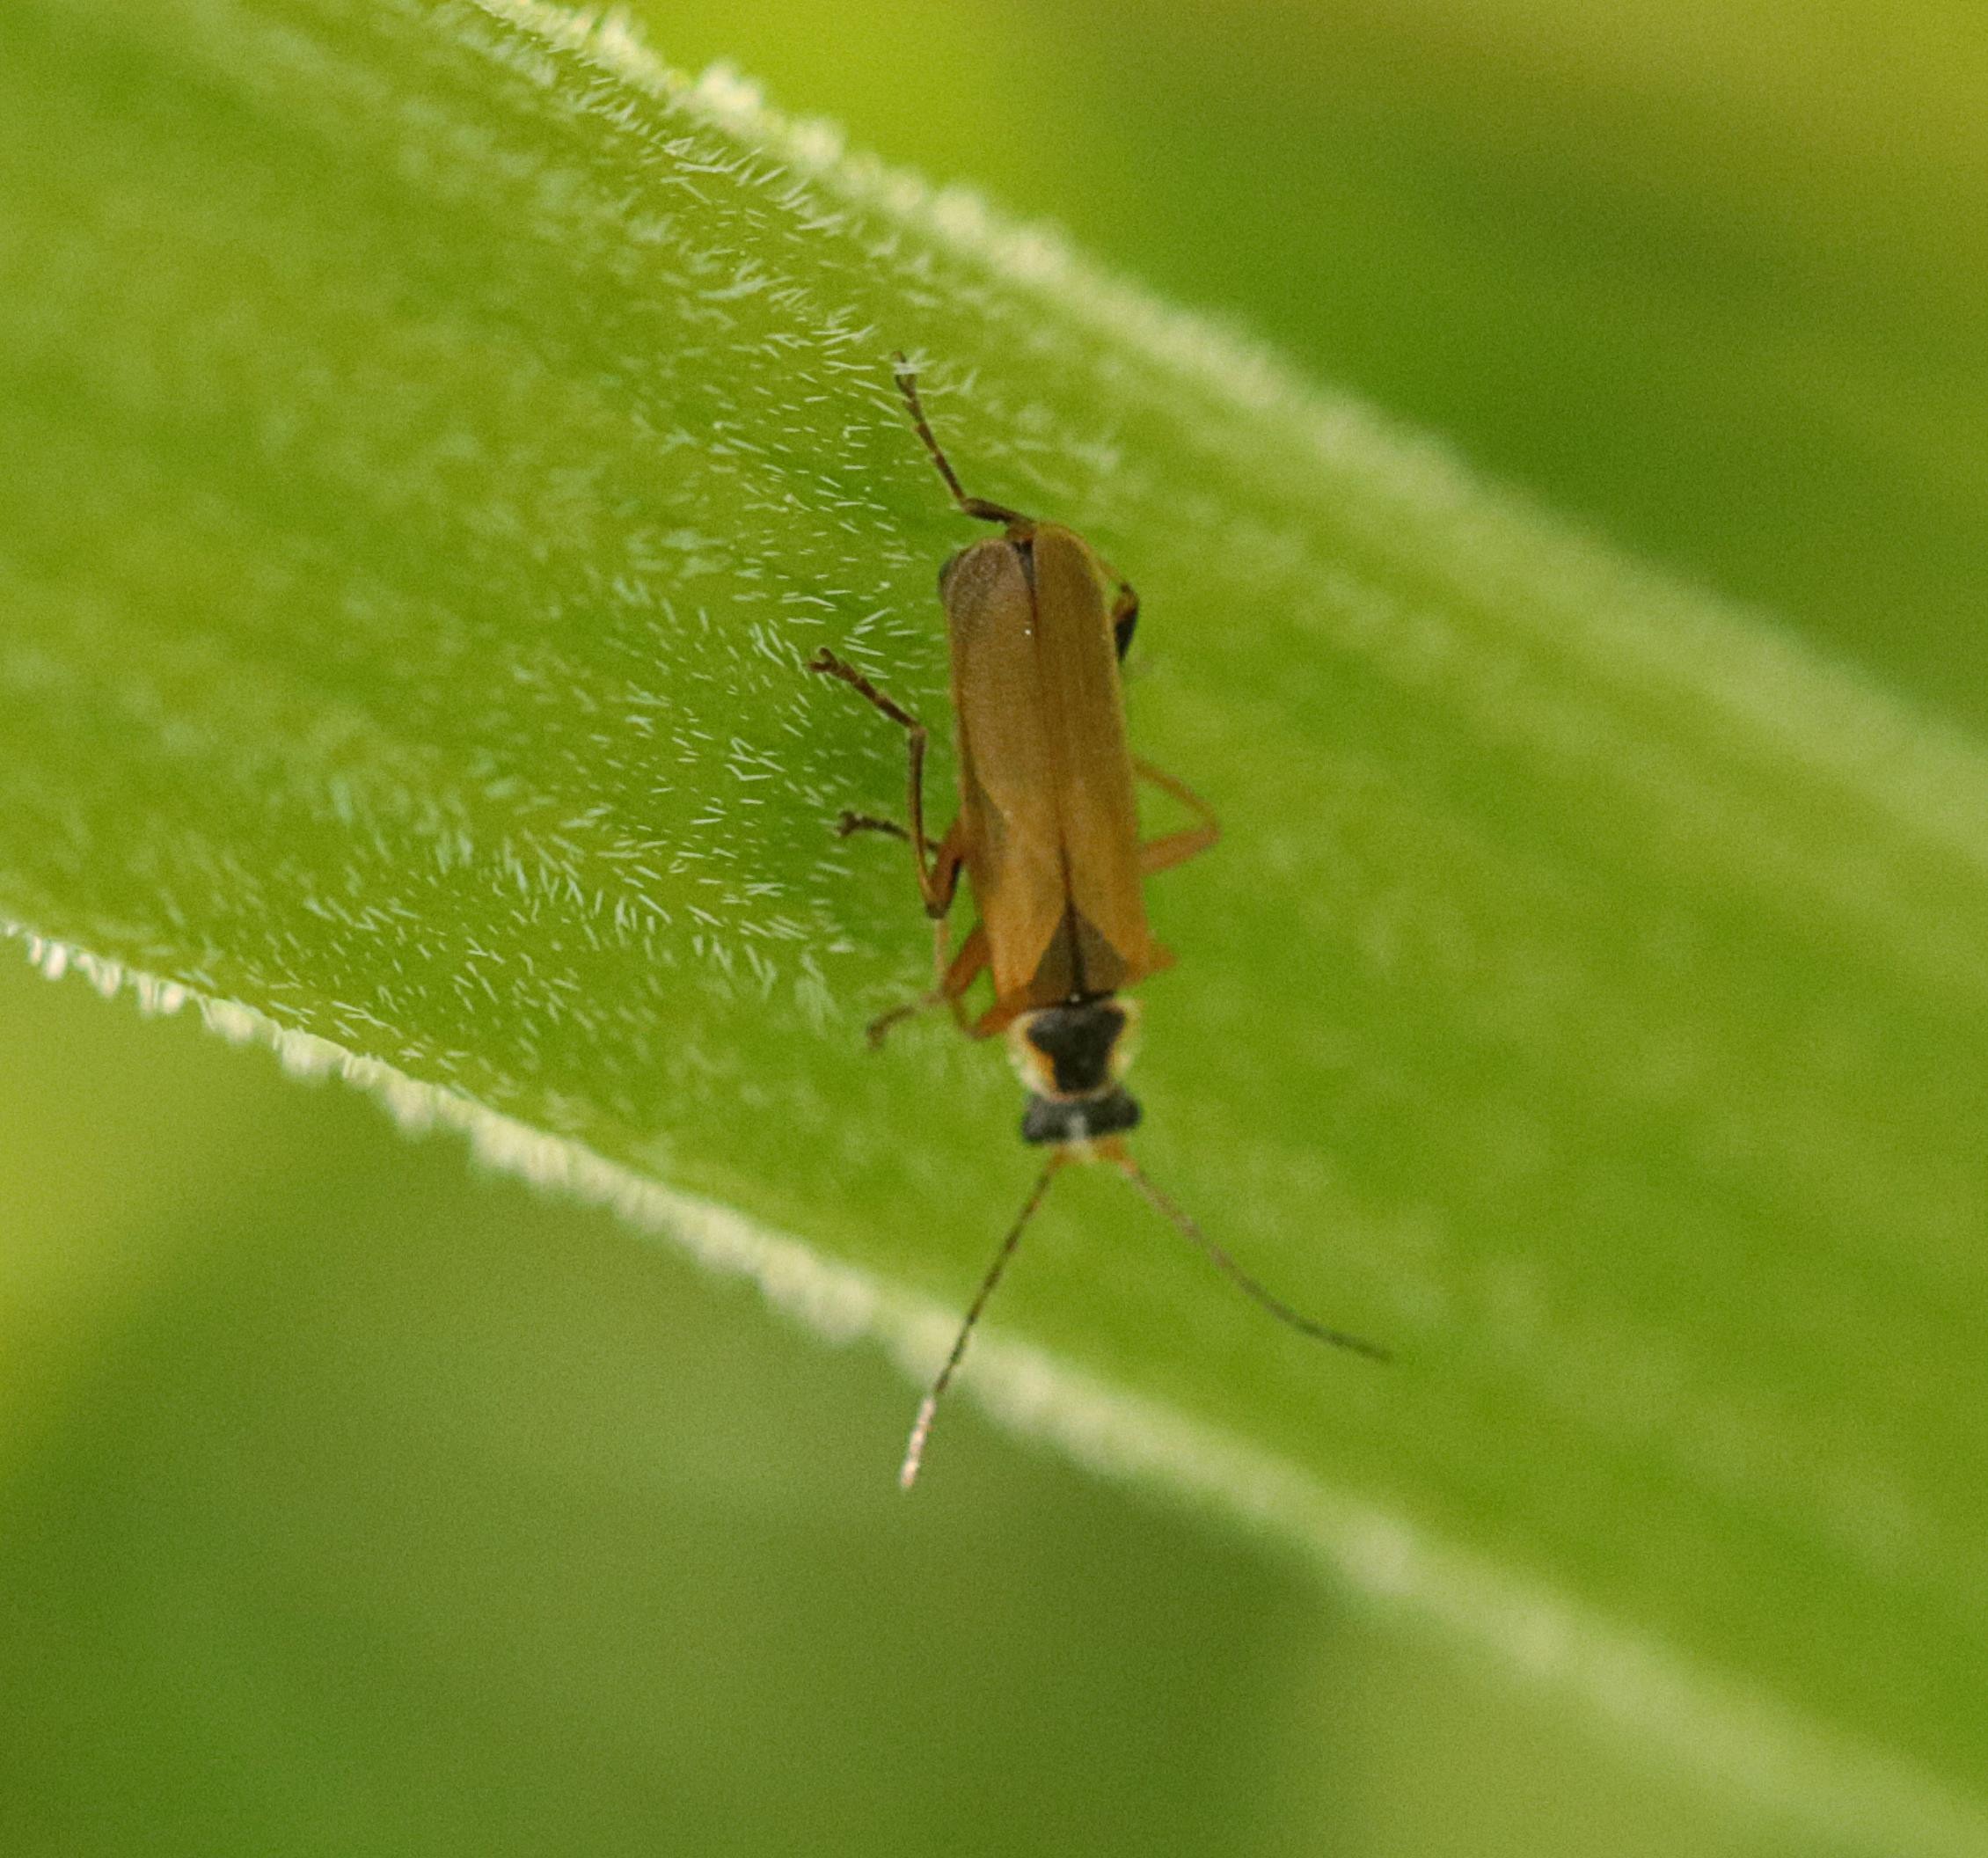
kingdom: Animalia
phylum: Arthropoda
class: Insecta
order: Coleoptera
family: Cantharidae
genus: Cantharis
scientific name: Cantharis decipiens
